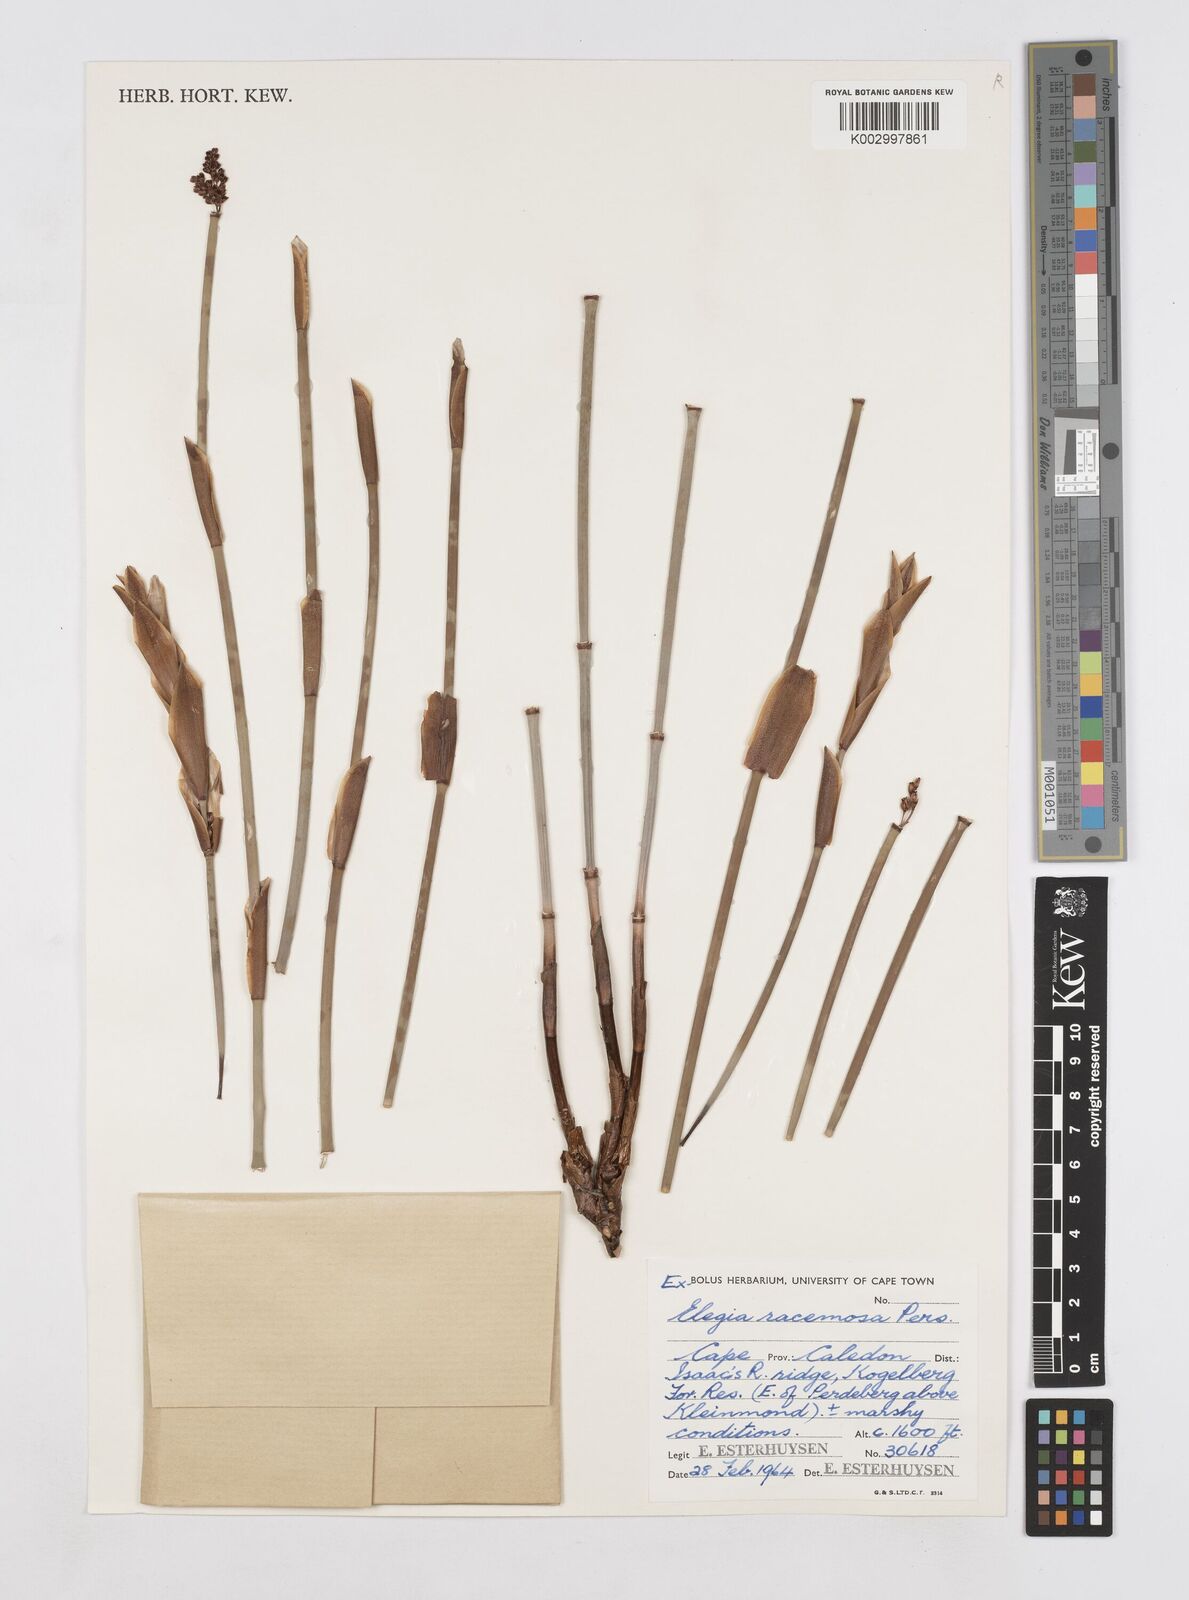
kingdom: Plantae
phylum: Tracheophyta
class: Liliopsida
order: Poales
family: Restionaceae
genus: Elegia
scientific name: Elegia racemosa
